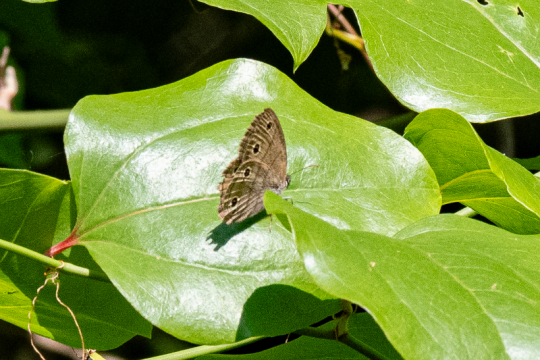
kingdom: Animalia
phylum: Arthropoda
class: Insecta
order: Lepidoptera
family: Nymphalidae
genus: Euptychia
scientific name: Euptychia cymela
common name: Little Wood Satyr
